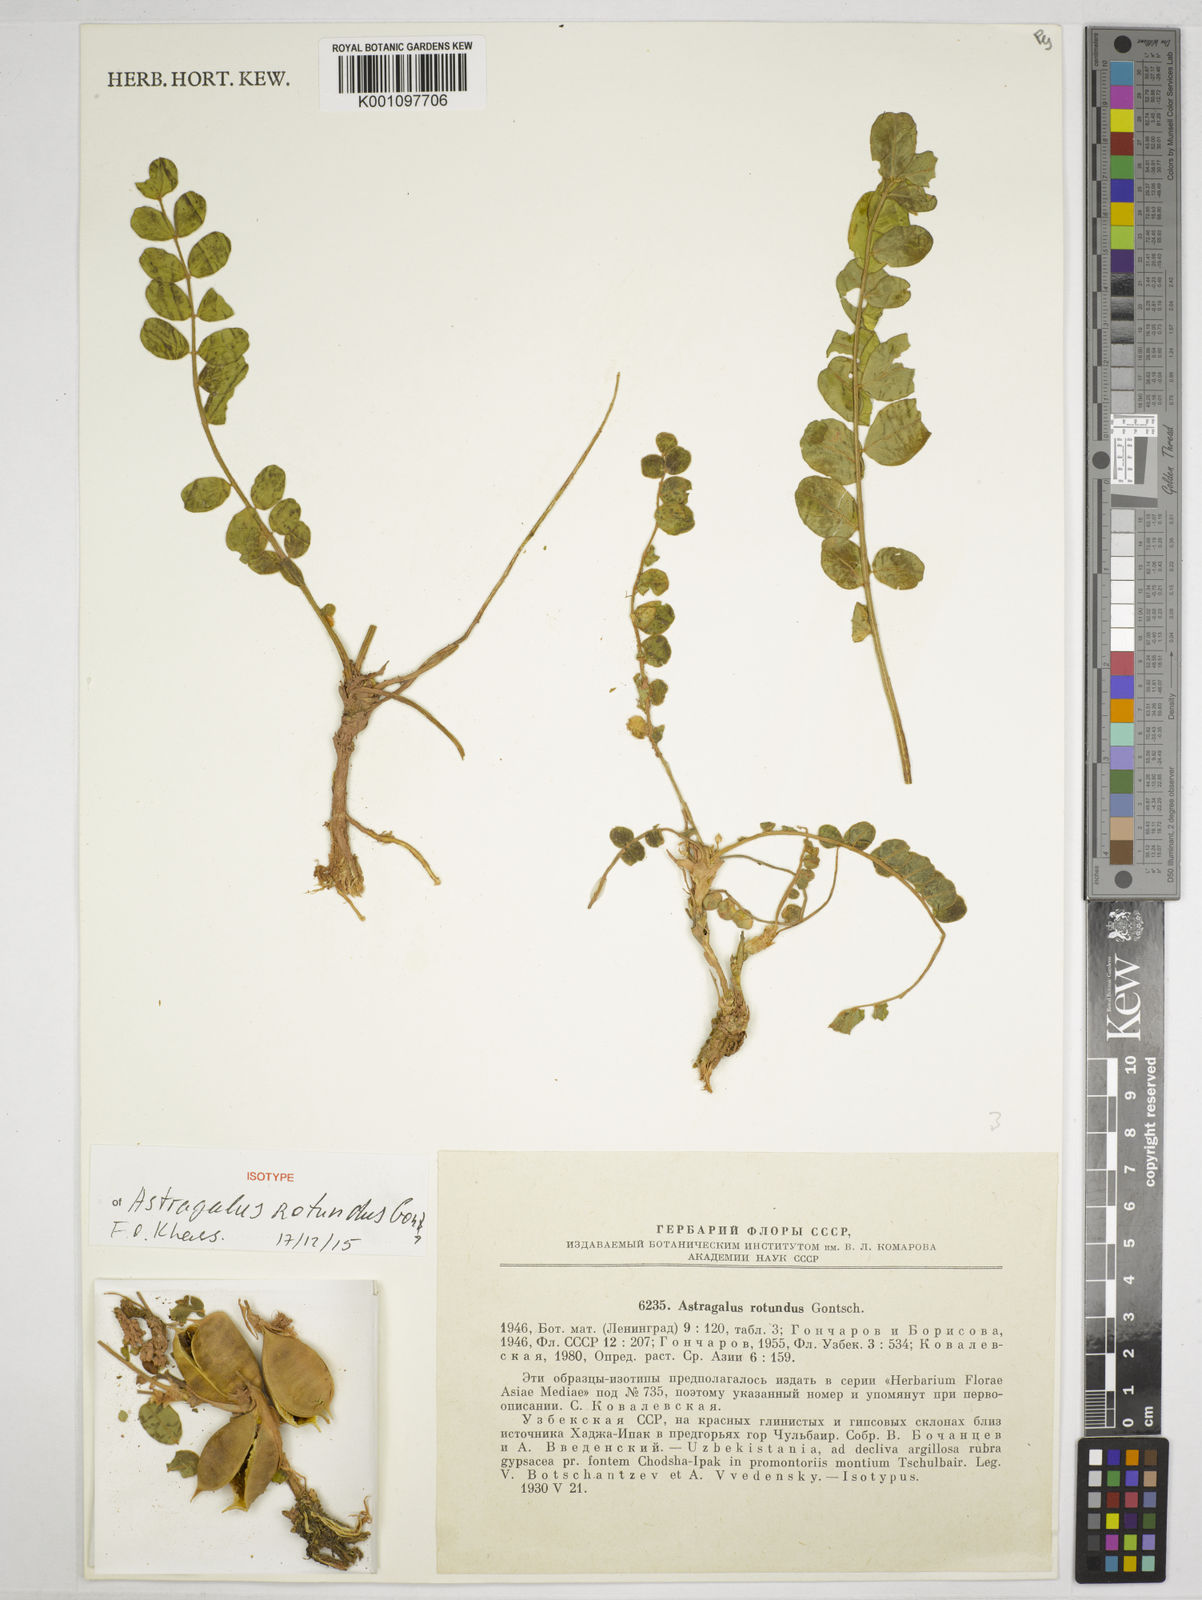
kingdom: Plantae
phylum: Tracheophyta
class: Magnoliopsida
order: Fabales
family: Fabaceae
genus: Astragalus
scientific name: Astragalus rotundus
